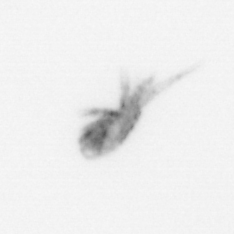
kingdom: Animalia
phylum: Arthropoda
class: Copepoda
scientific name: Copepoda
